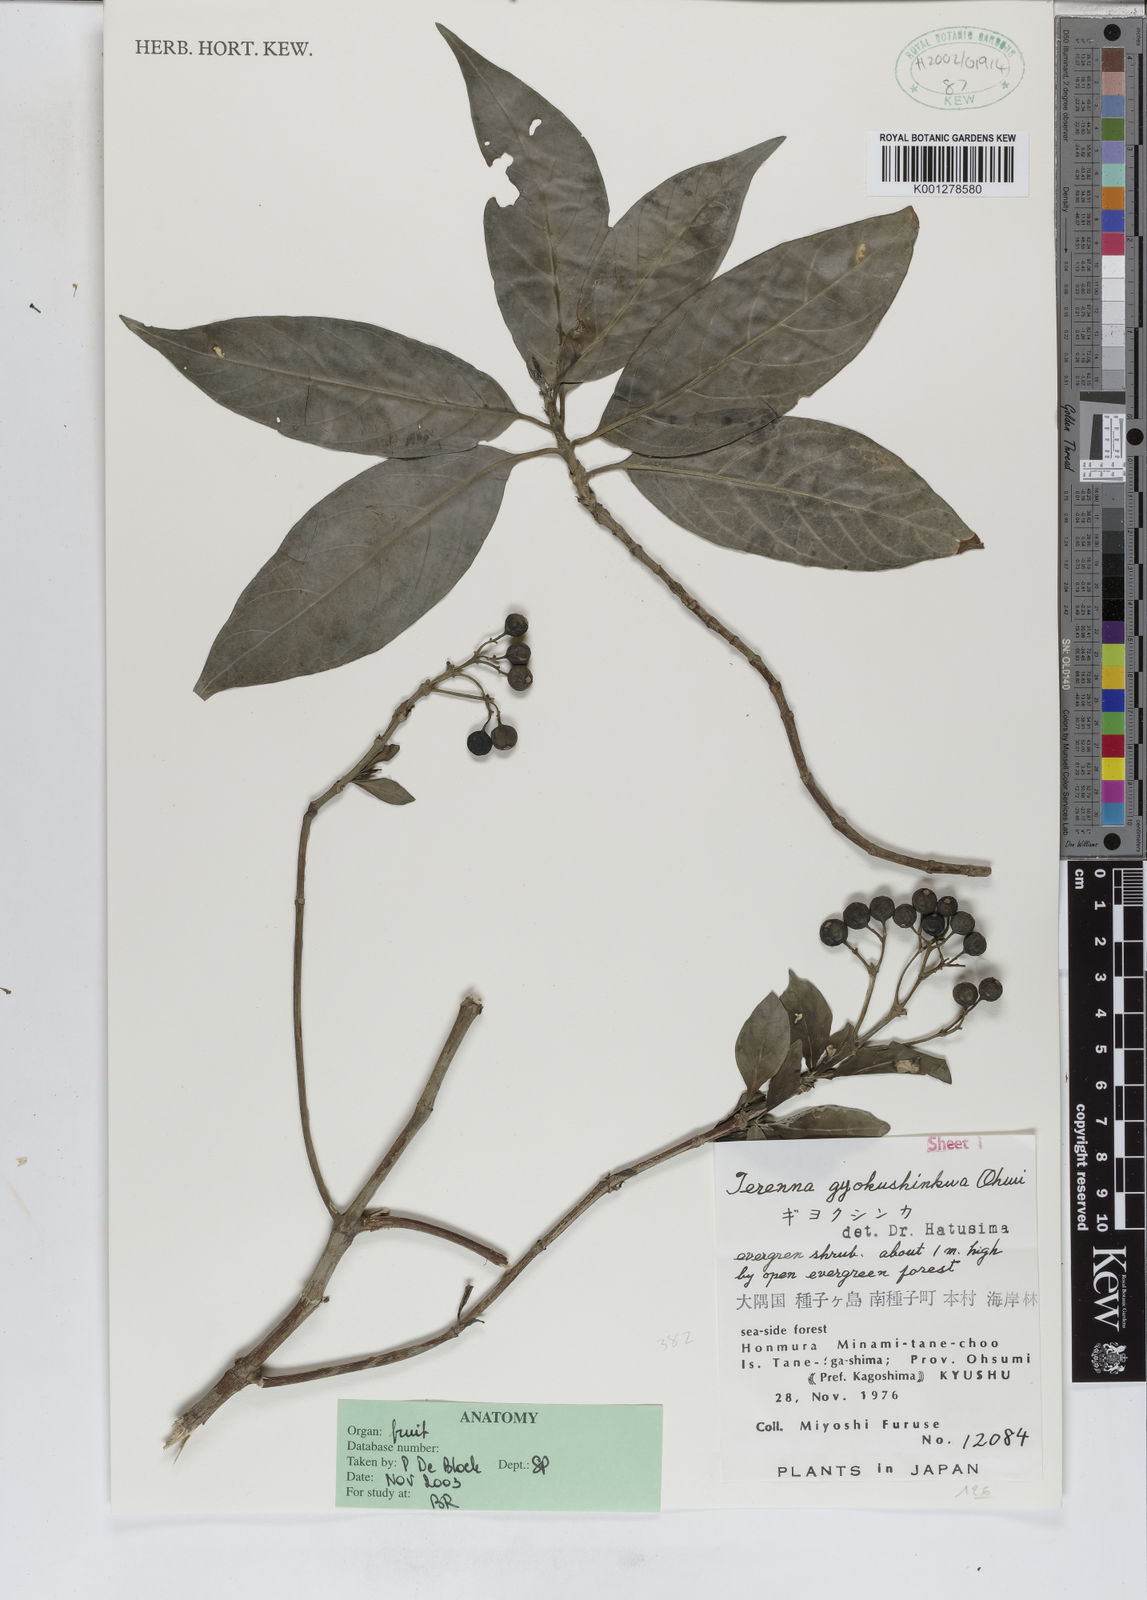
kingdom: Plantae
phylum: Tracheophyta
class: Magnoliopsida
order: Gentianales
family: Rubiaceae
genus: Tarenna
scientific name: Tarenna gracilipes
